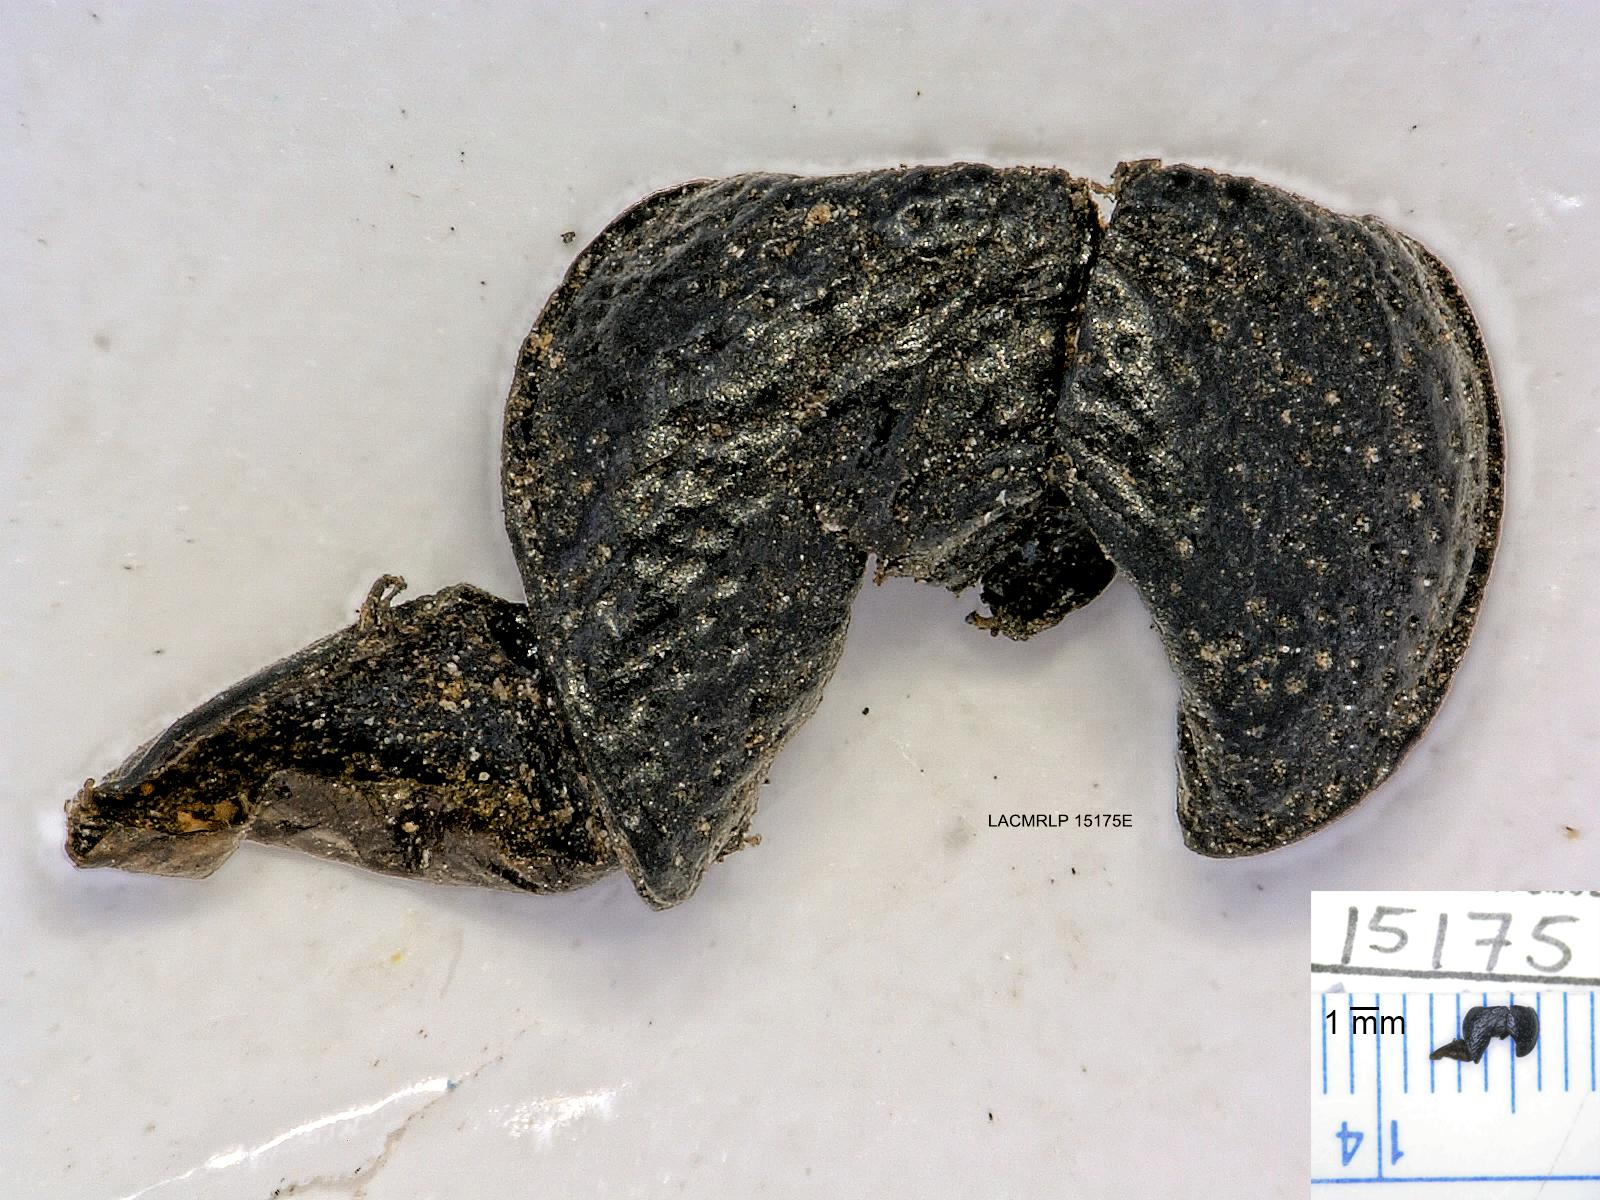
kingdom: Animalia
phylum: Arthropoda
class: Insecta
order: Coleoptera
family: Carabidae
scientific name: Carabidae
